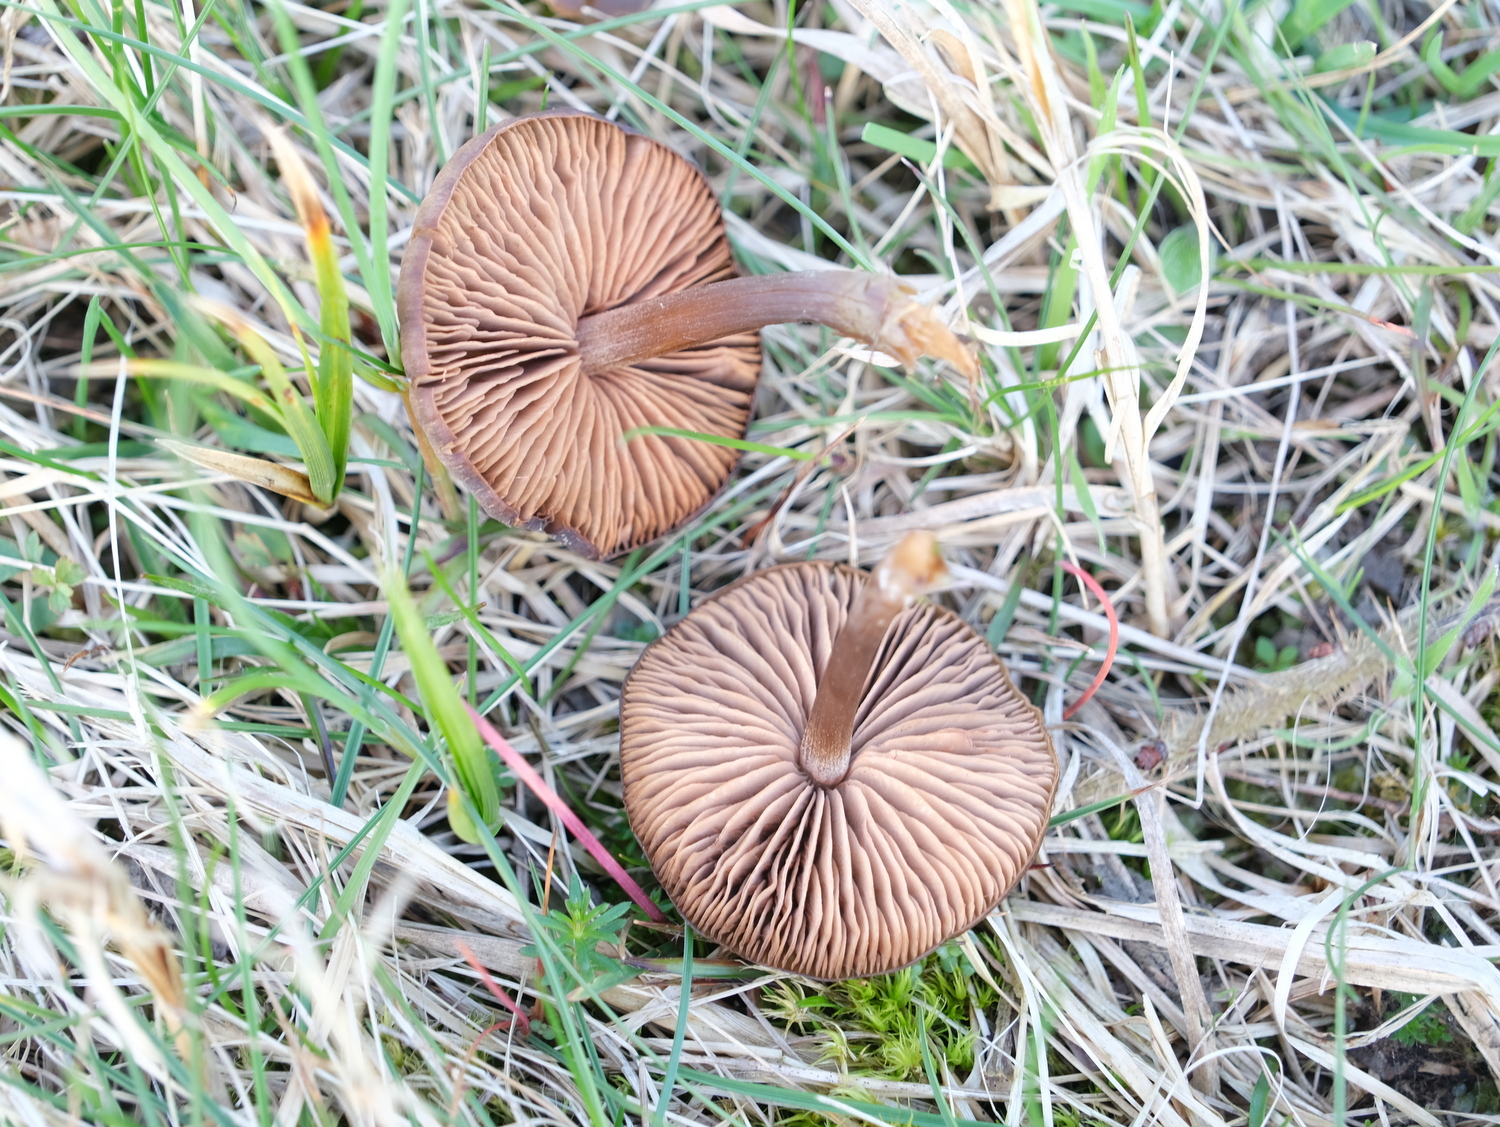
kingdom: Fungi
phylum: Basidiomycota
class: Agaricomycetes
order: Agaricales
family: Entolomataceae
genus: Entoloma
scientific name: Entoloma vernum
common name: vår-rødblad
